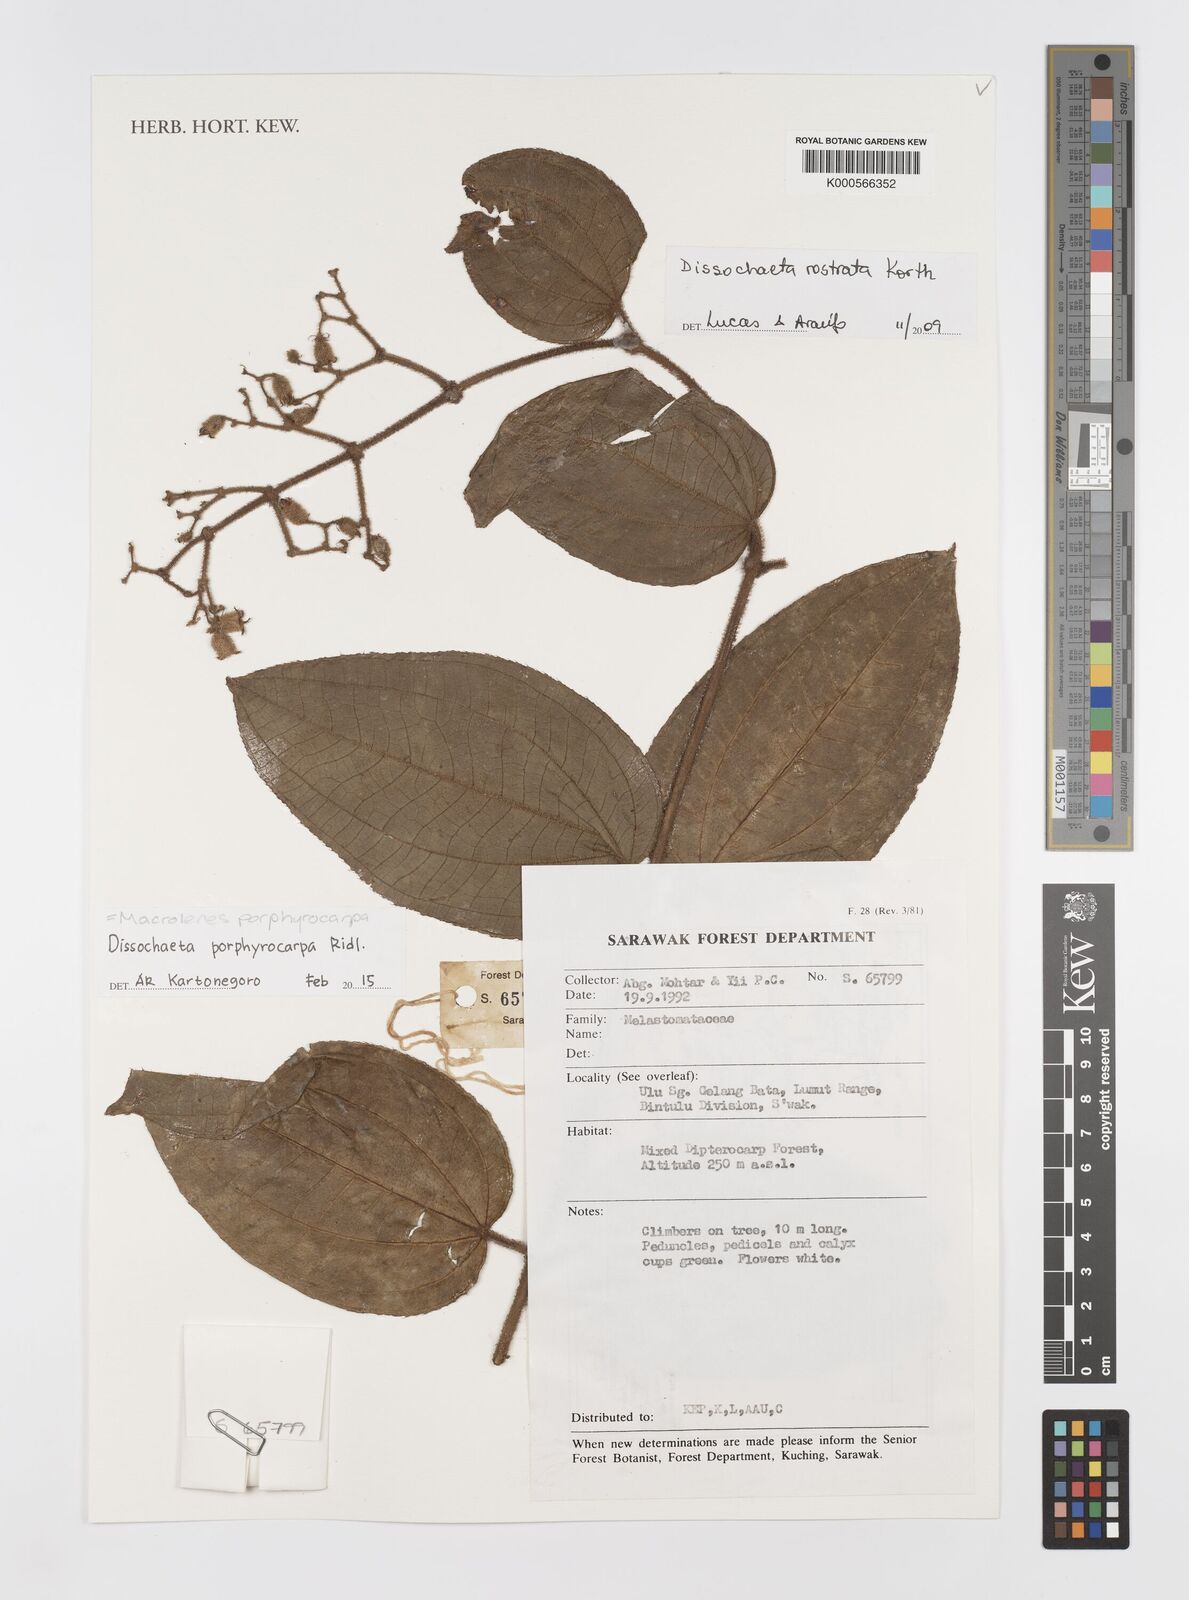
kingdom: Plantae
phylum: Tracheophyta
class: Magnoliopsida
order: Myrtales
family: Melastomataceae
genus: Macrolenes
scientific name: Macrolenes porphyrocarpa
